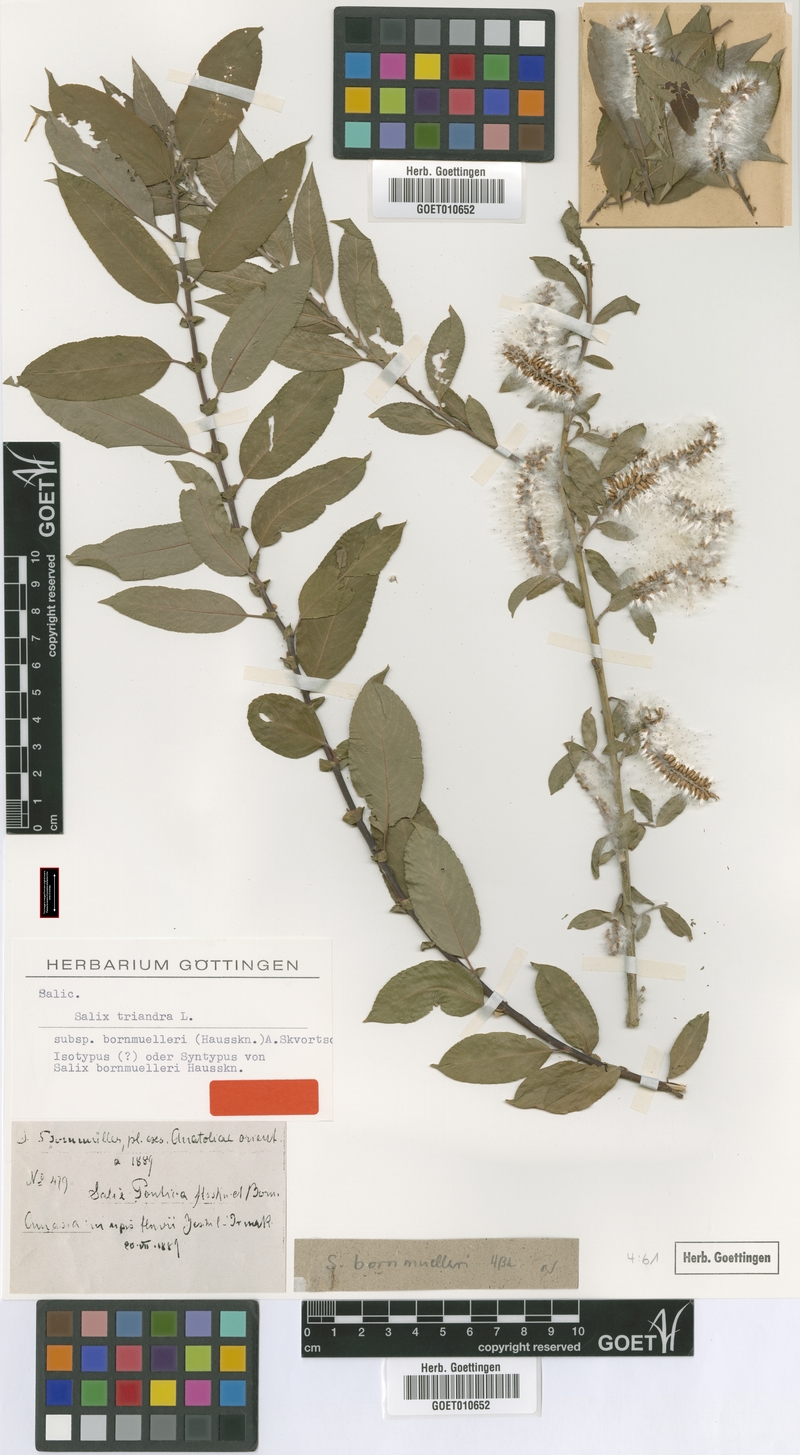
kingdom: Plantae
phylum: Tracheophyta
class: Magnoliopsida
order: Malpighiales
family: Salicaceae
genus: Salix
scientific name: Salix triandra
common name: Almond willow
